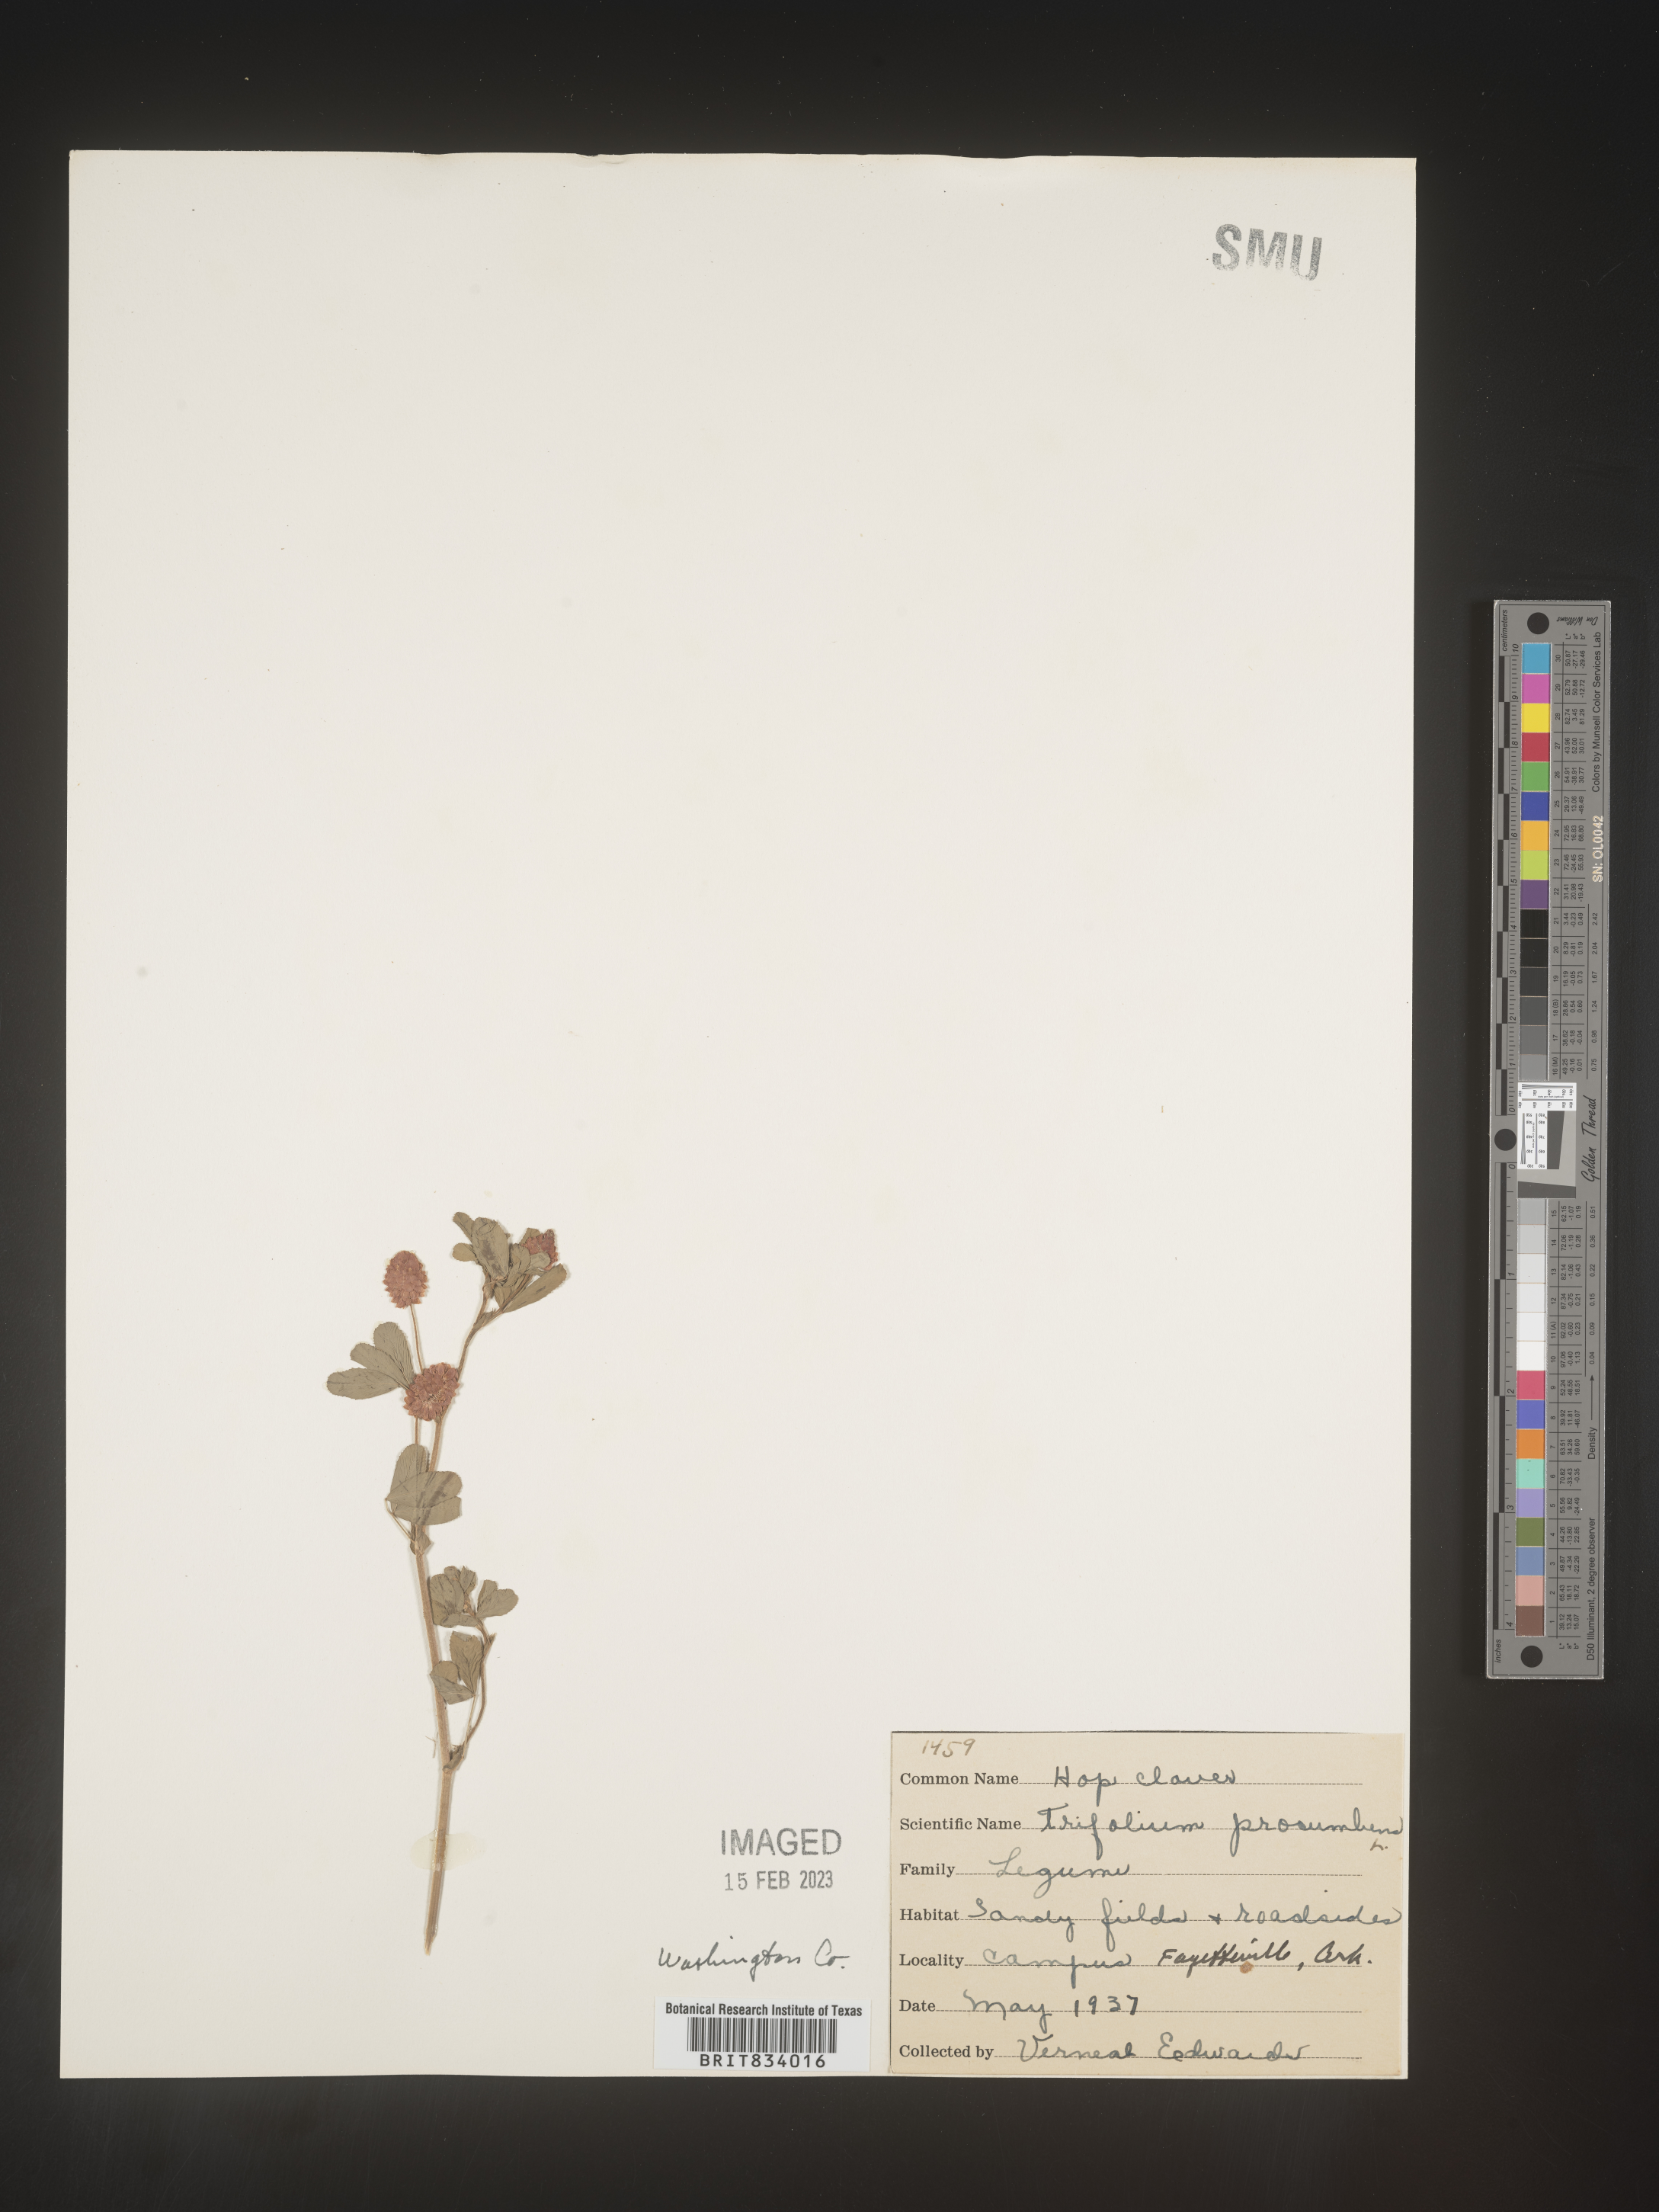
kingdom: Plantae
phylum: Tracheophyta
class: Magnoliopsida
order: Fabales
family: Fabaceae
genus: Trifolium
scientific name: Trifolium campestre
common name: Field clover
